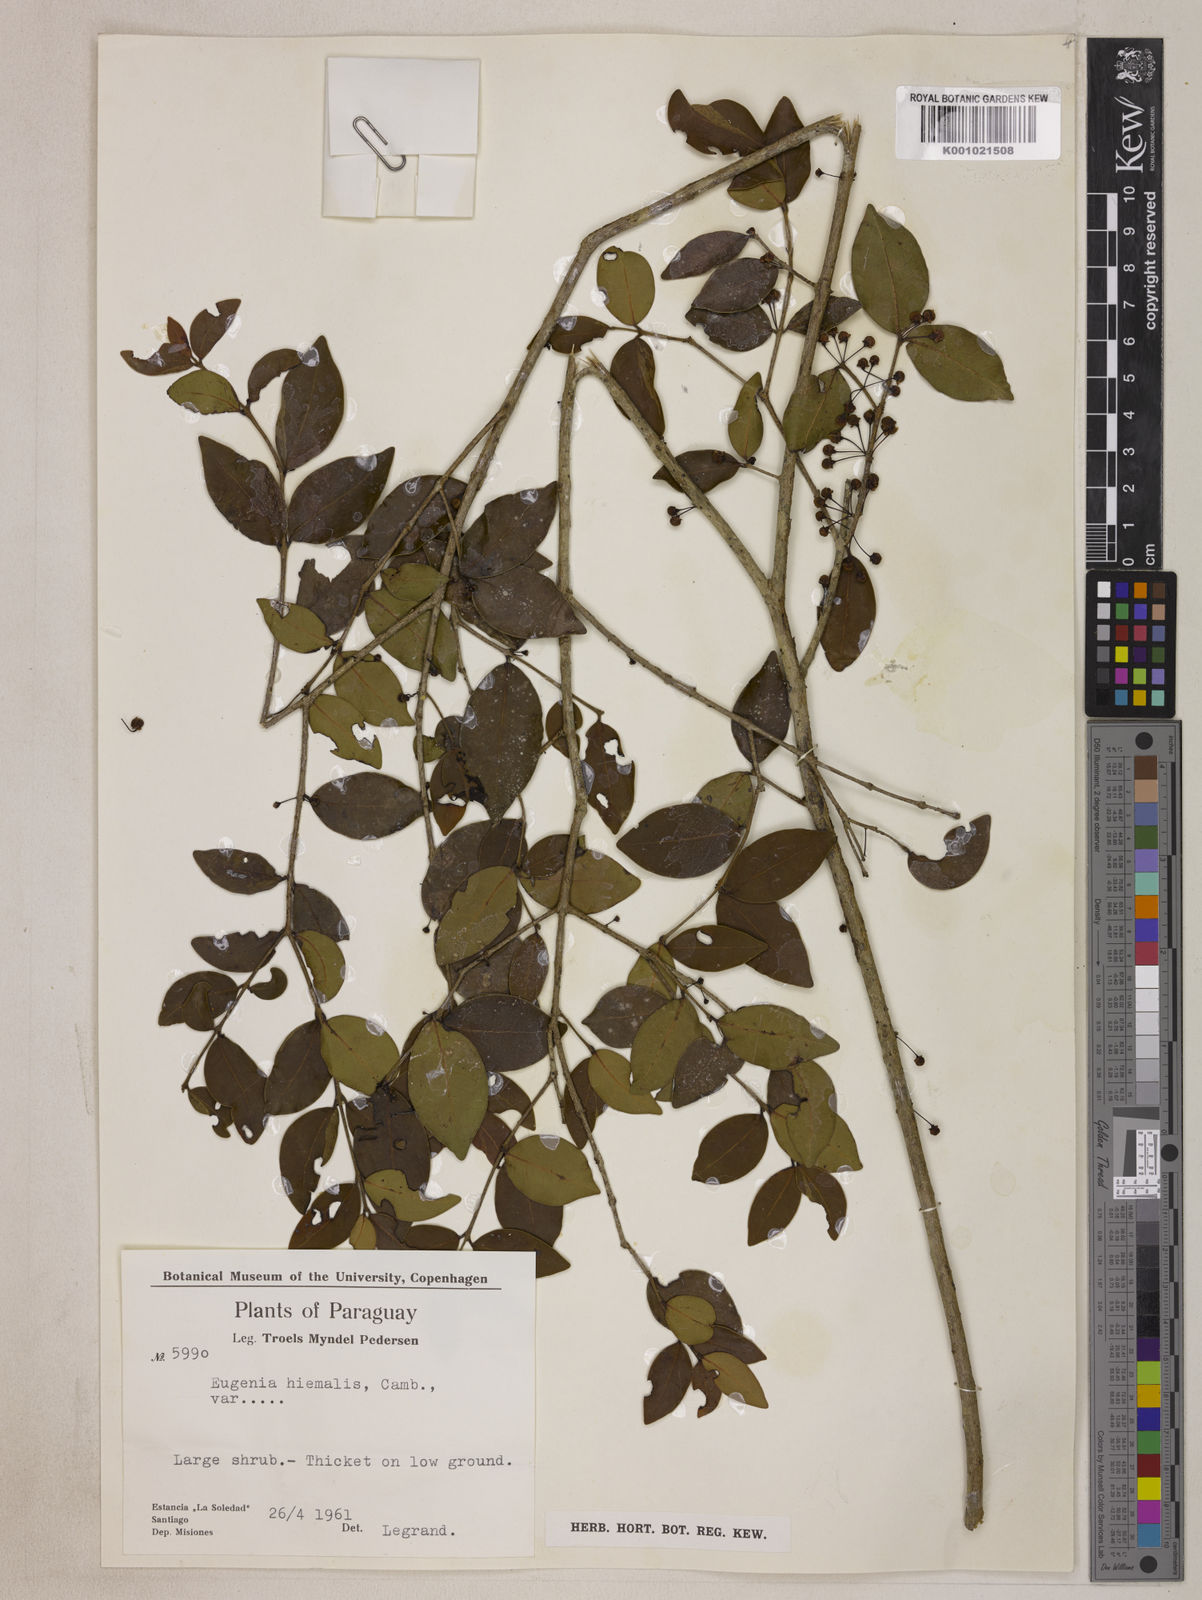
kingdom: Plantae
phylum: Tracheophyta
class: Magnoliopsida
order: Myrtales
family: Myrtaceae
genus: Eugenia
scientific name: Eugenia hiemalis
